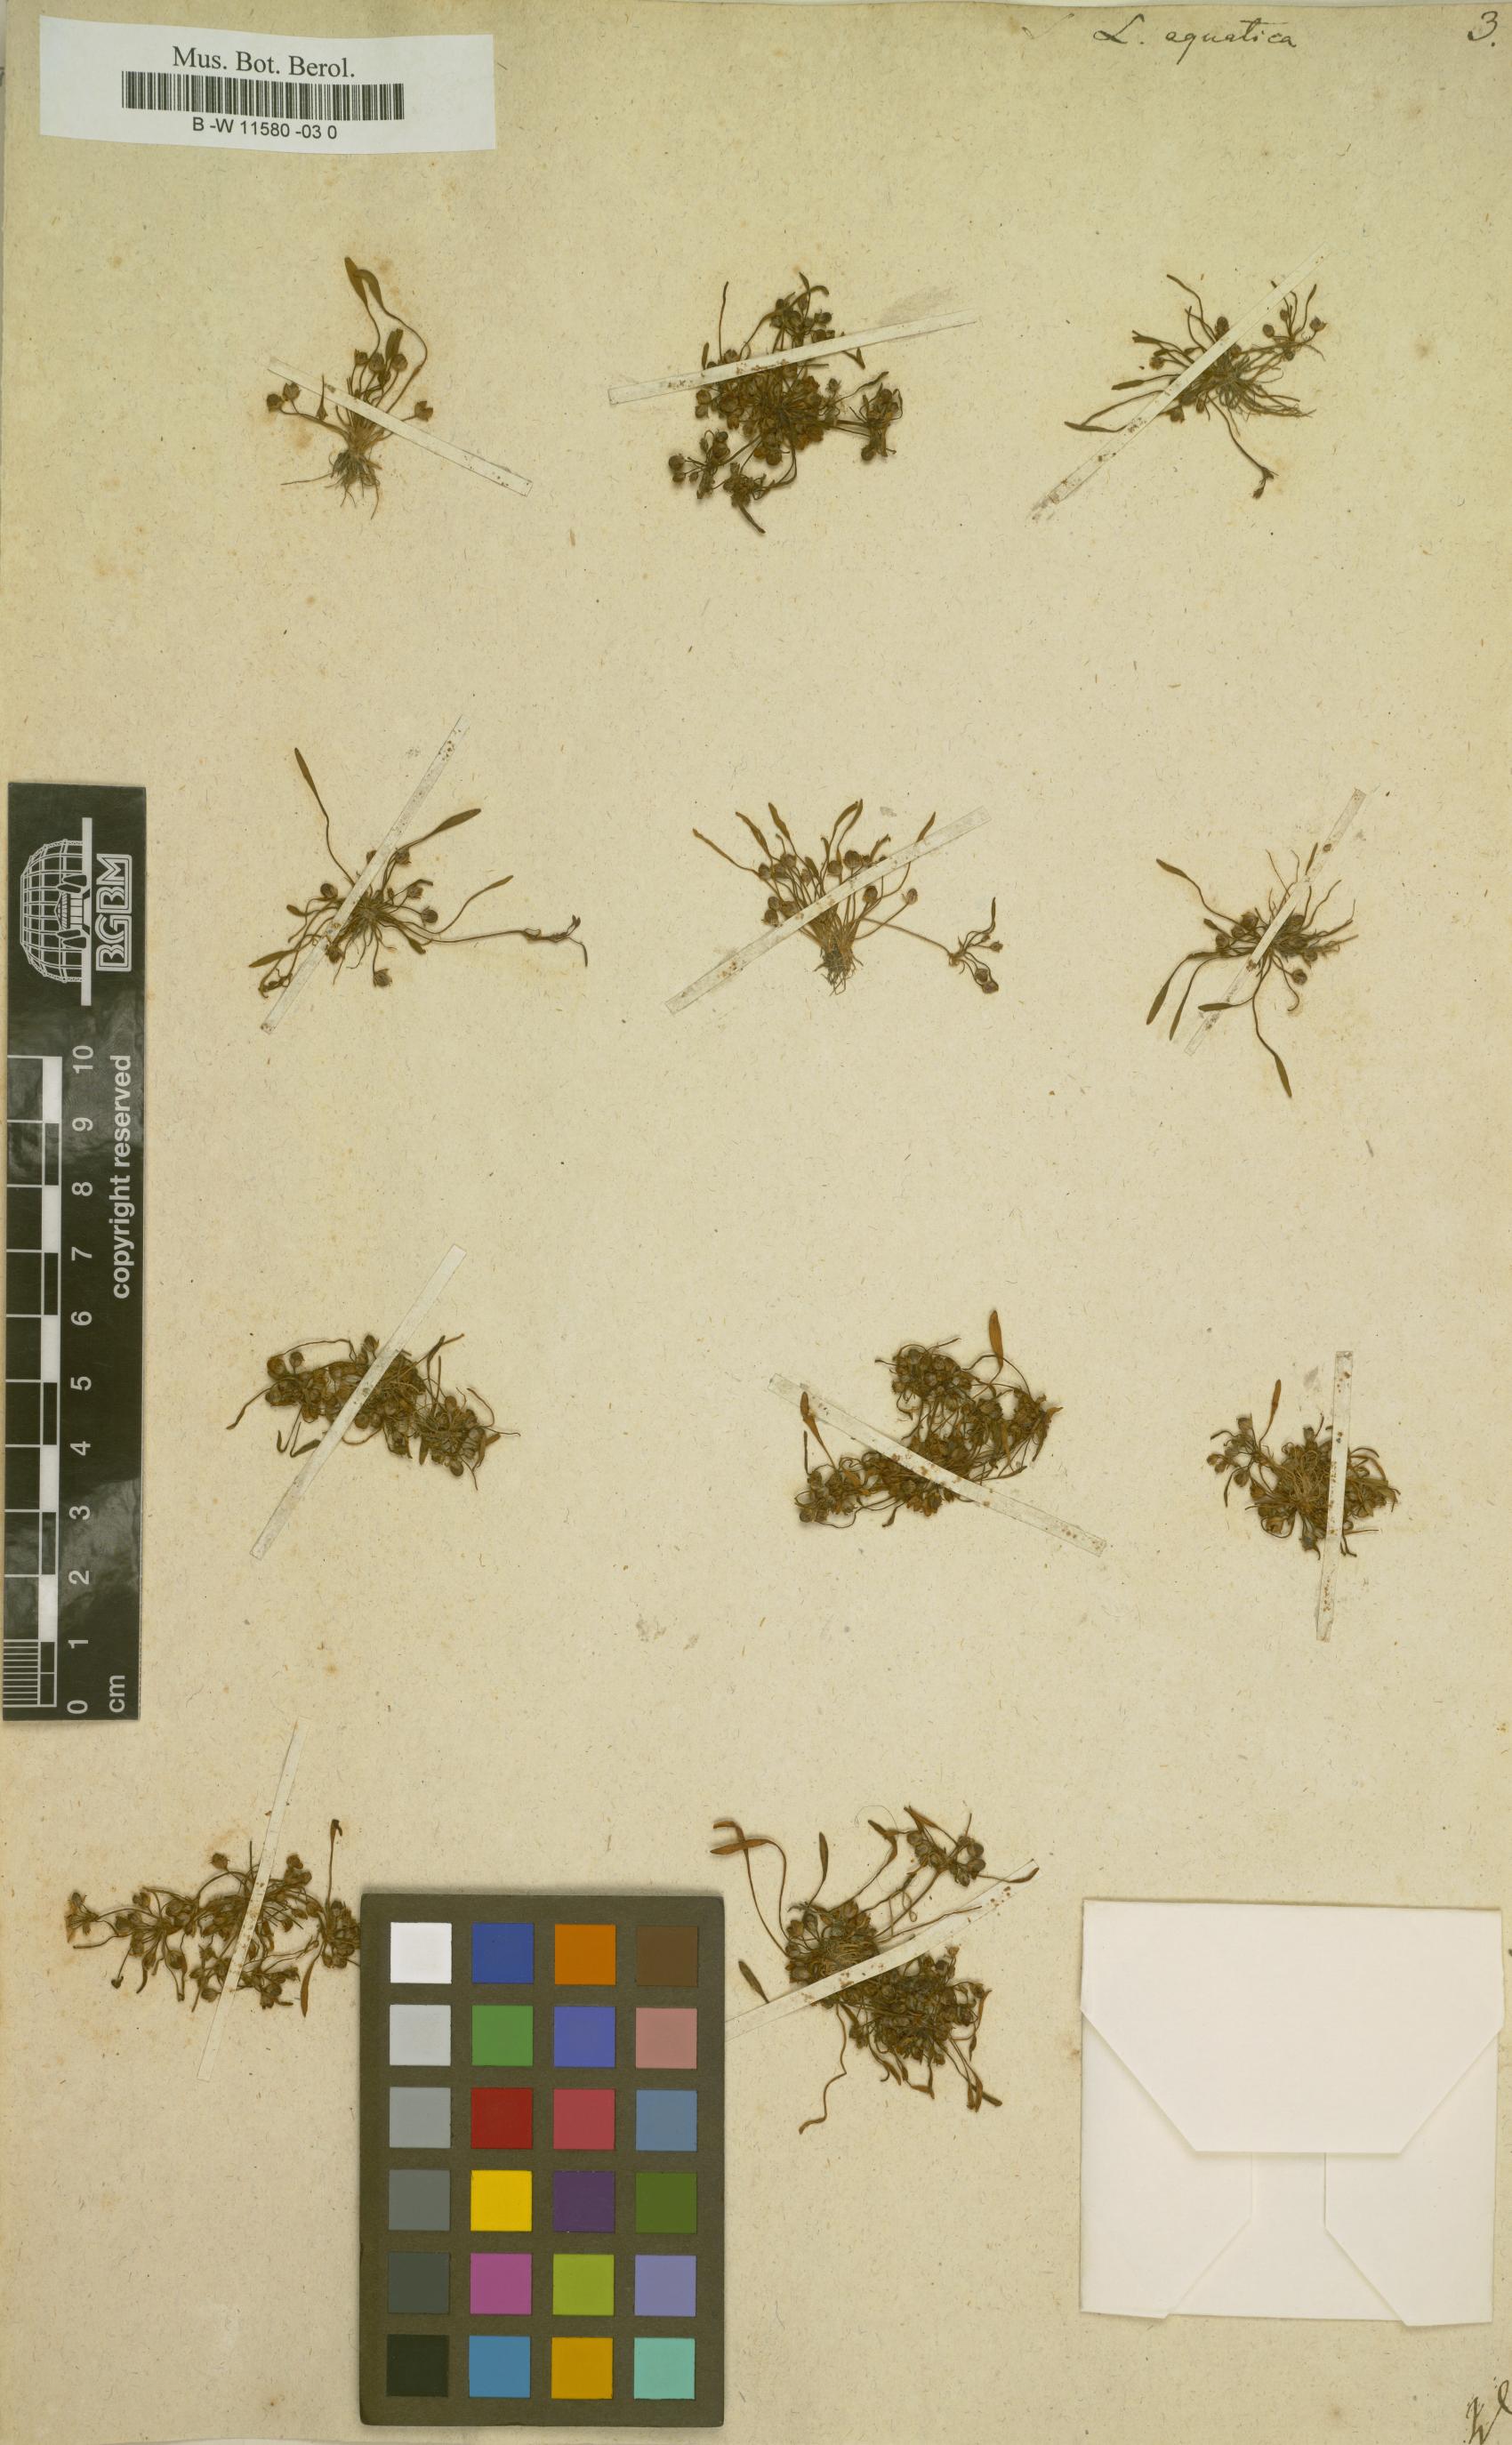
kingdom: Plantae
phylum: Tracheophyta
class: Magnoliopsida
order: Lamiales
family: Scrophulariaceae
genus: Limosella
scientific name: Limosella aquatica
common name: Mudwort
